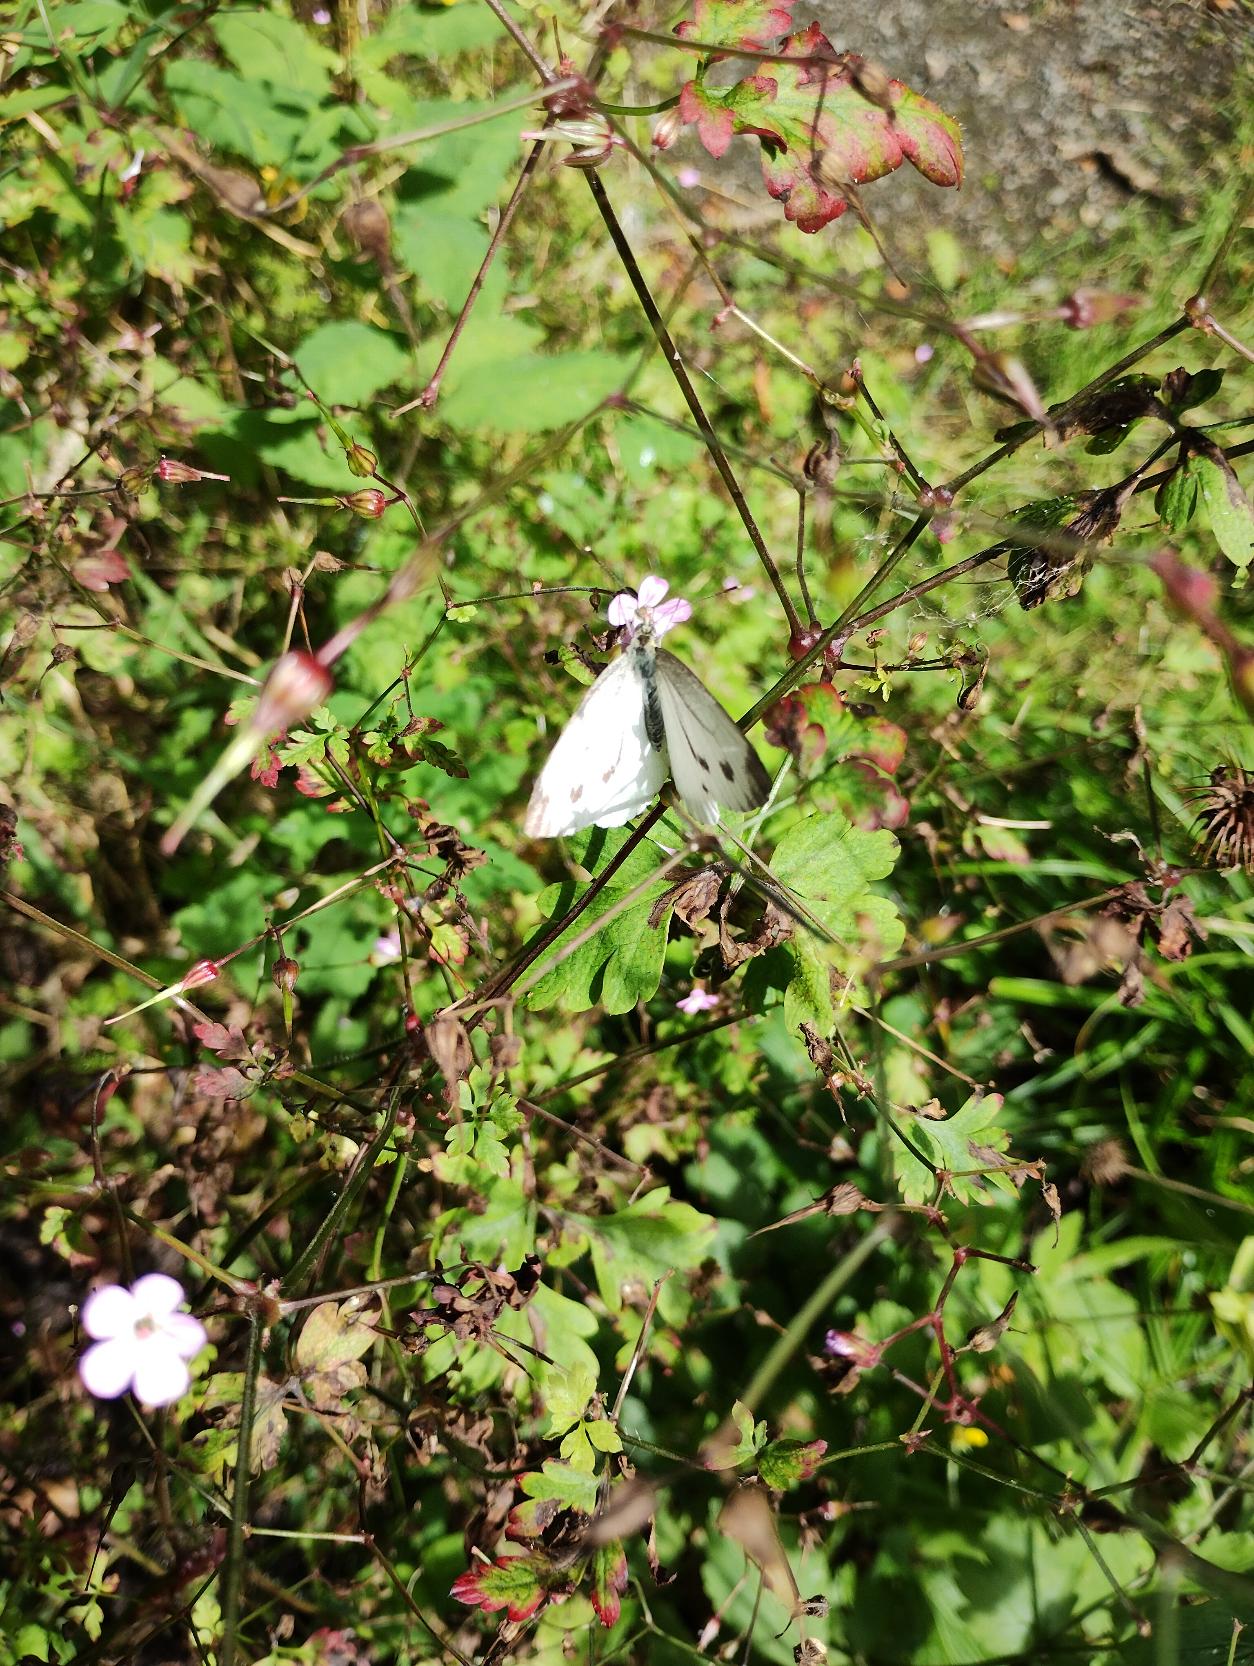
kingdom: Animalia
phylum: Arthropoda
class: Insecta
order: Lepidoptera
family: Pieridae
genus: Pieris
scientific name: Pieris napi
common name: Grønåret kålsommerfugl
